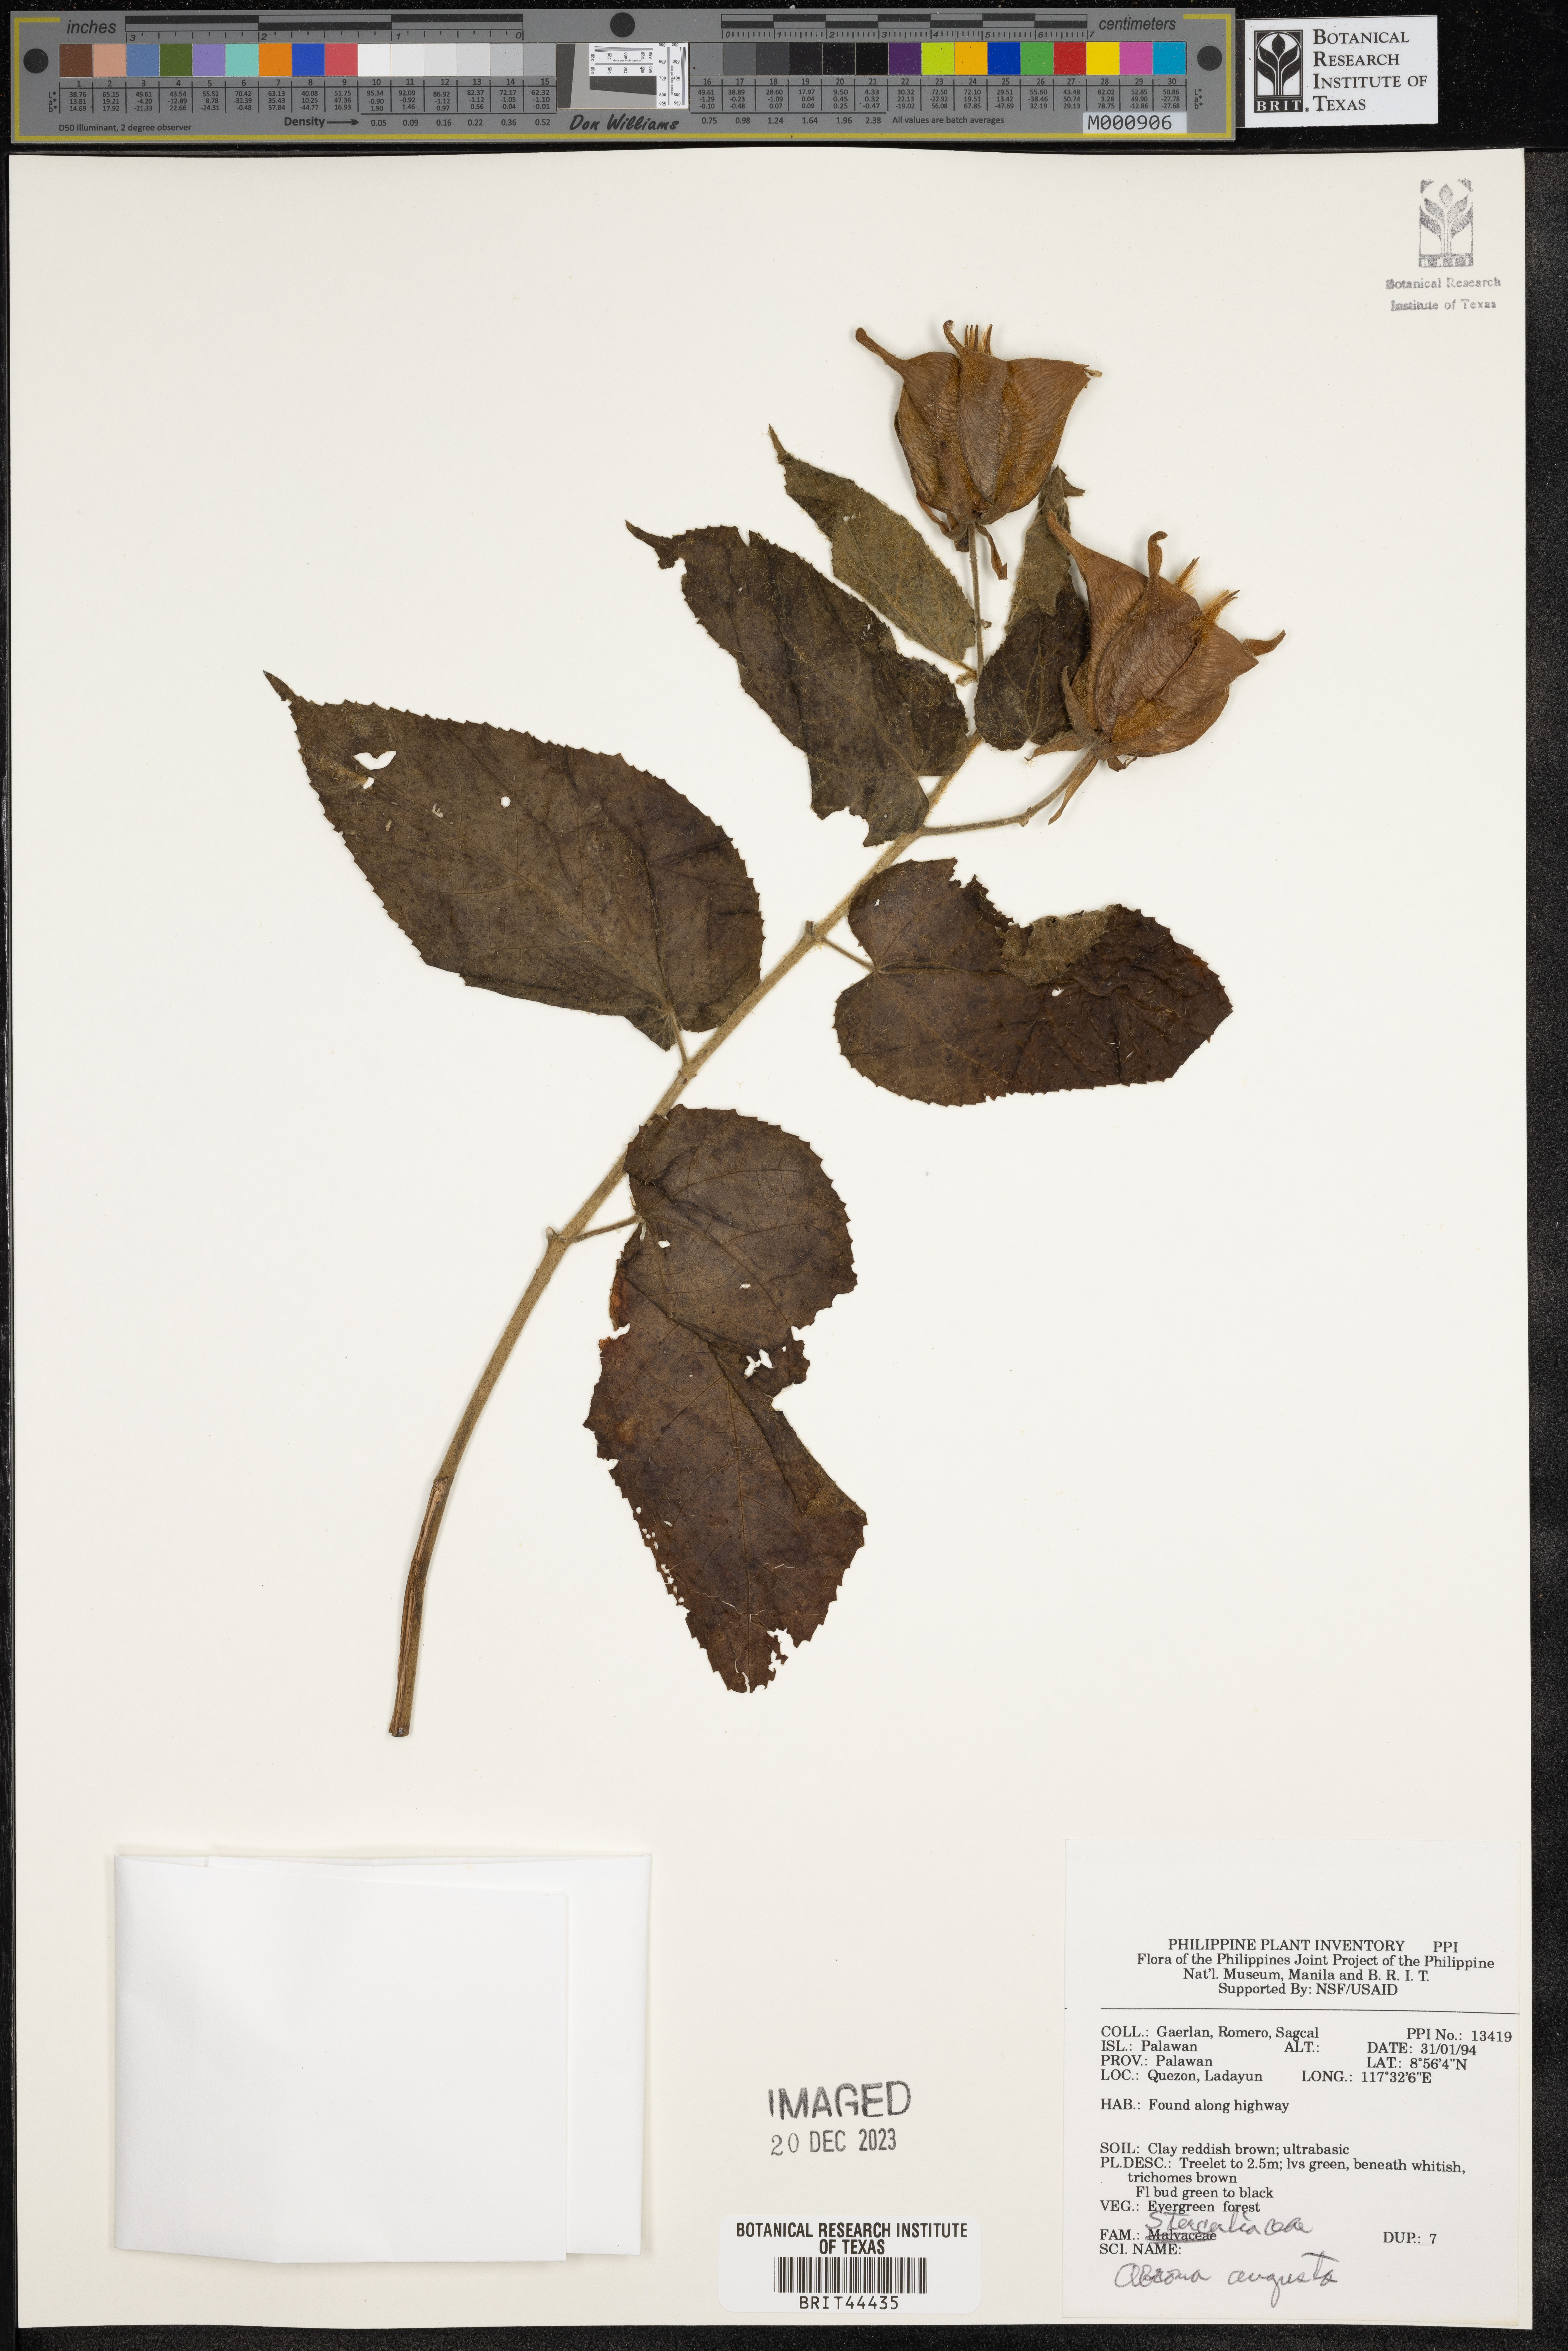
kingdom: Plantae
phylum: Tracheophyta
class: Magnoliopsida
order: Malvales
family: Malvaceae
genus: Abroma
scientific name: Abroma augustum
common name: Devil's-cotton
